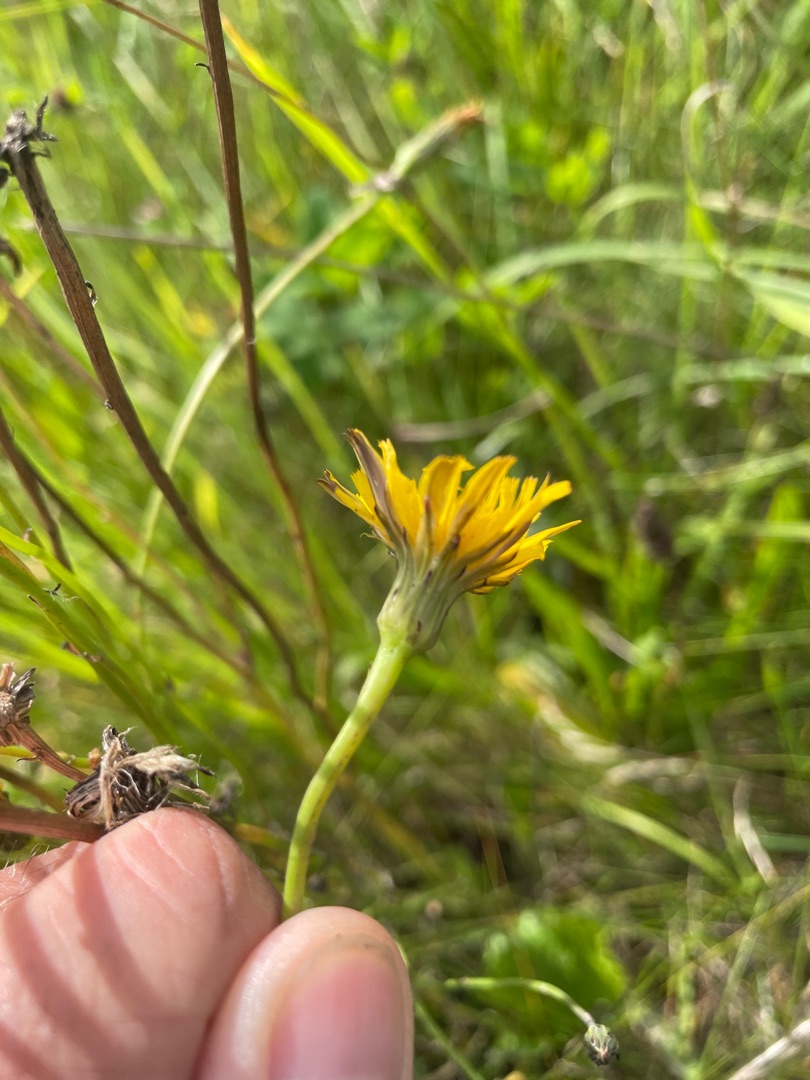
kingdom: Plantae
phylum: Tracheophyta
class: Magnoliopsida
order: Asterales
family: Asteraceae
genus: Hypochaeris
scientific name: Hypochaeris radicata
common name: Almindelig kongepen
